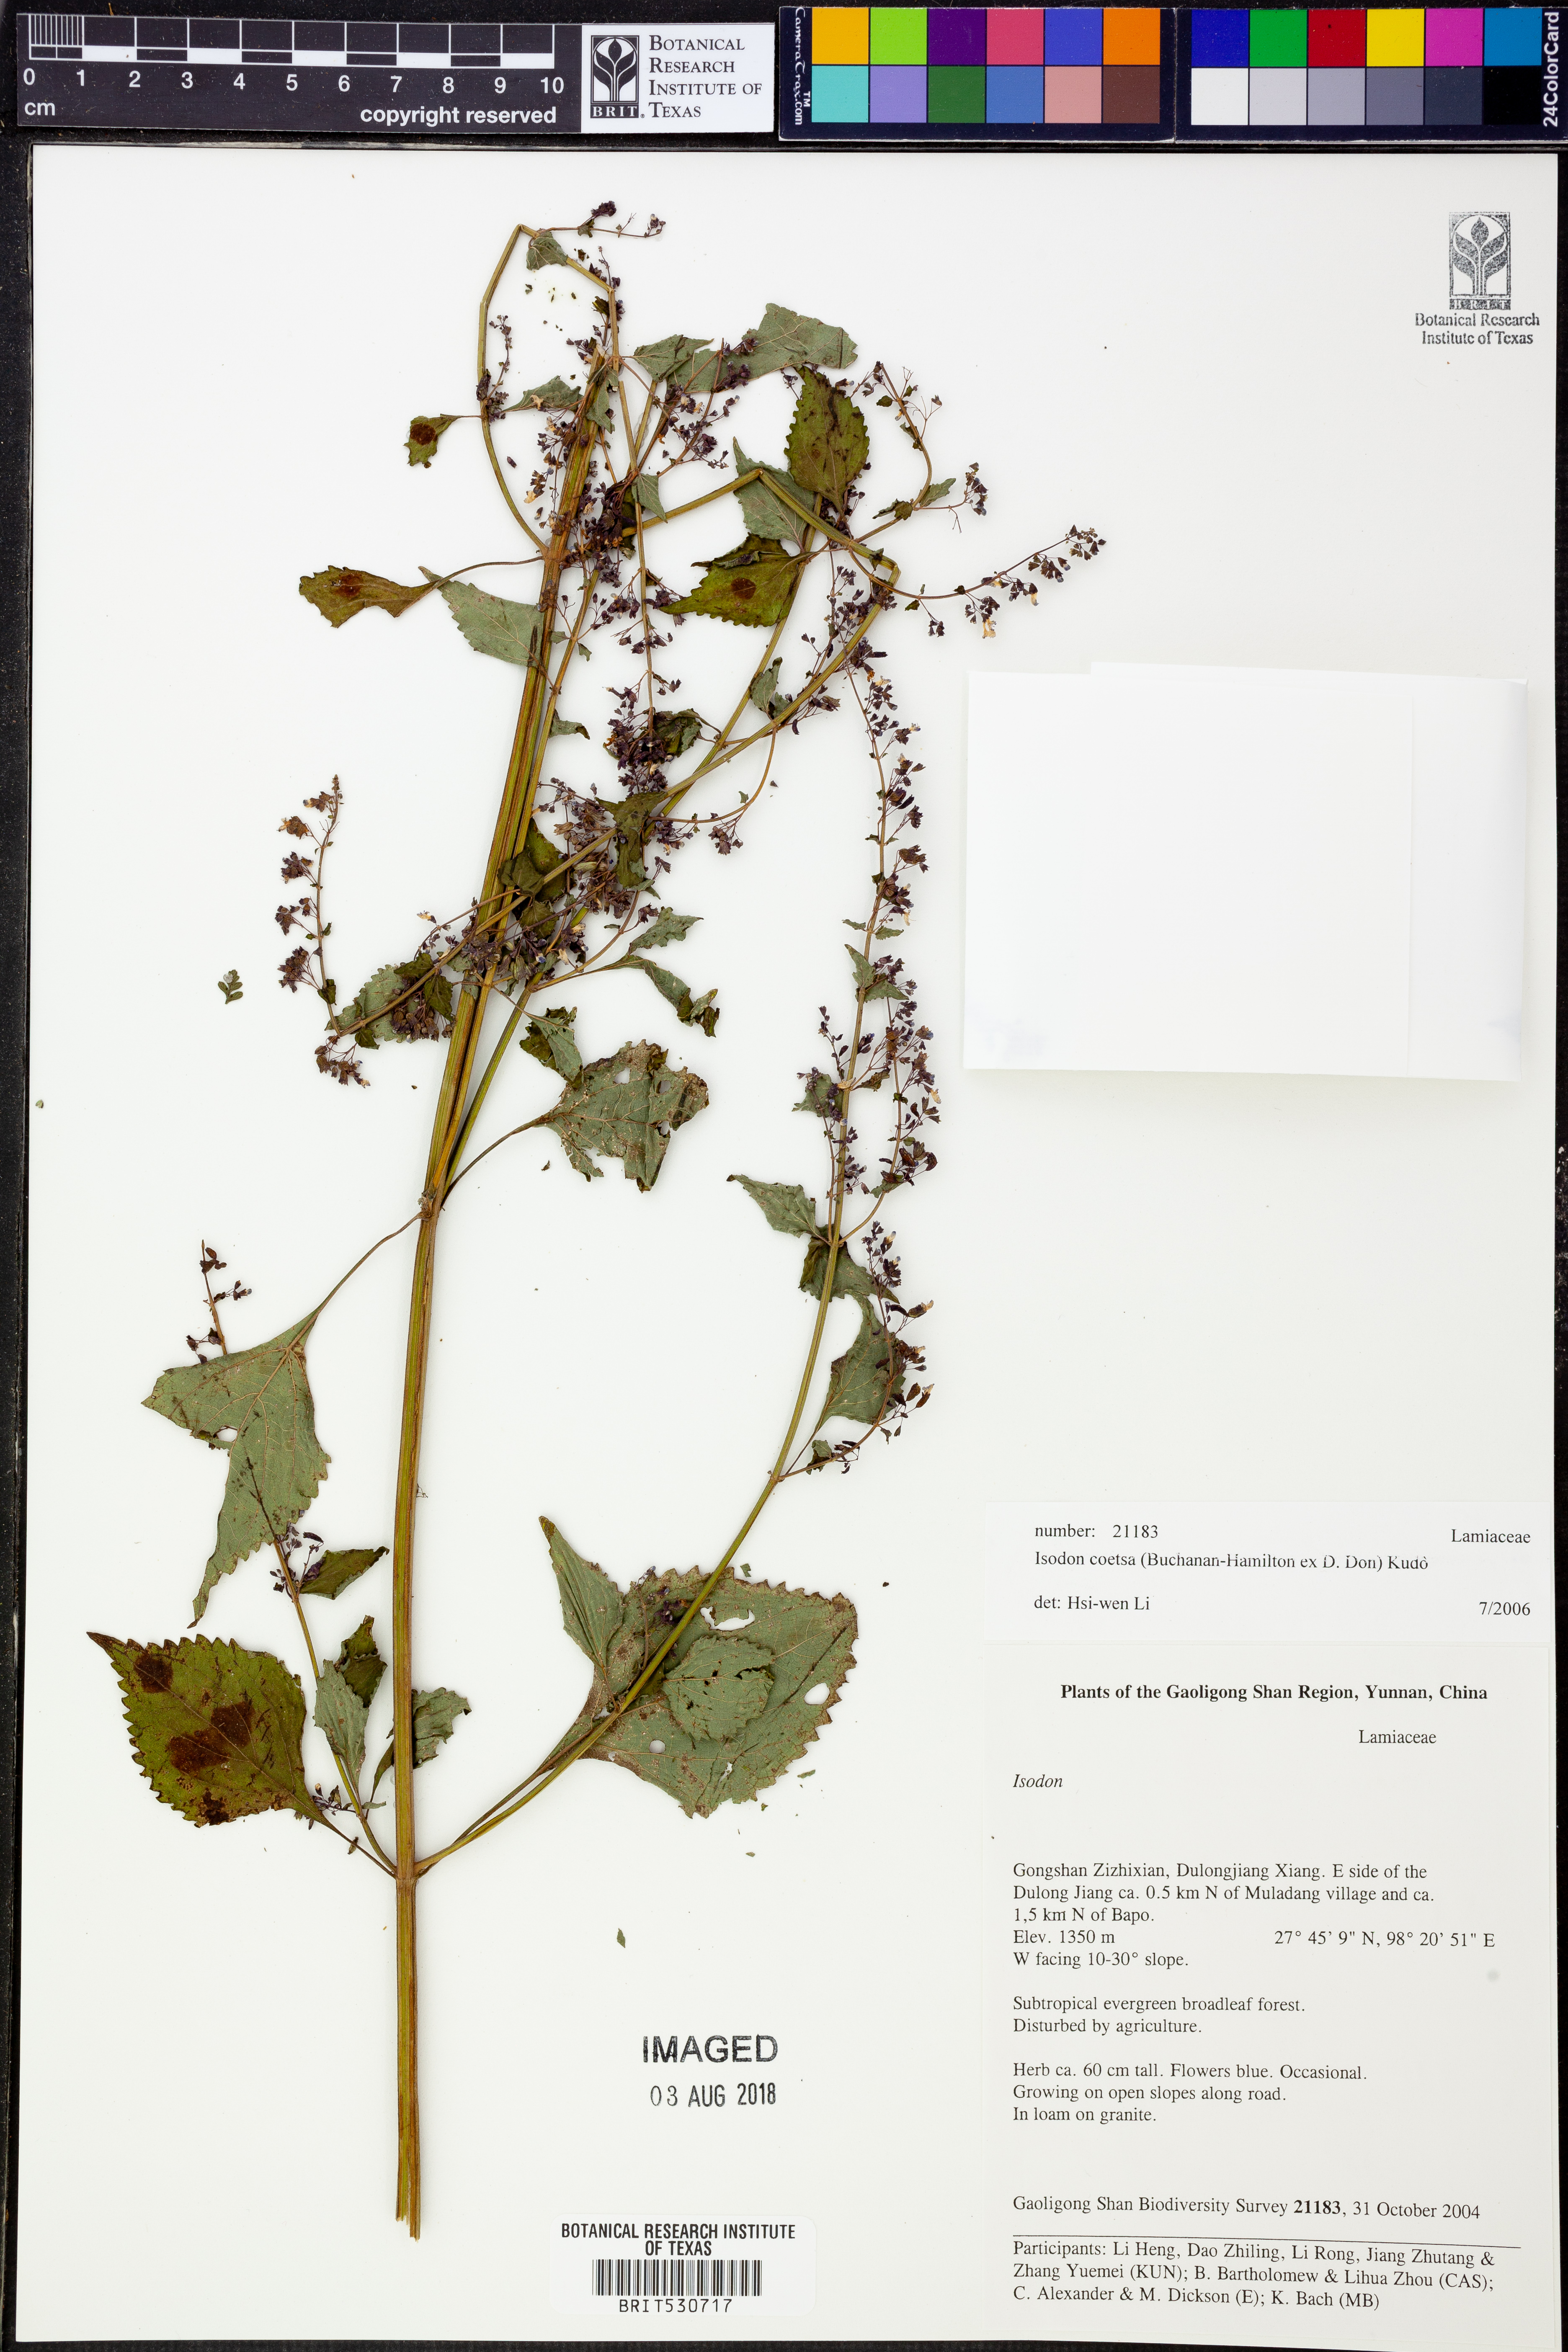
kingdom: Plantae
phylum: Tracheophyta
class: Magnoliopsida
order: Lamiales
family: Lamiaceae
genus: Isodon
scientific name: Isodon coetsa
